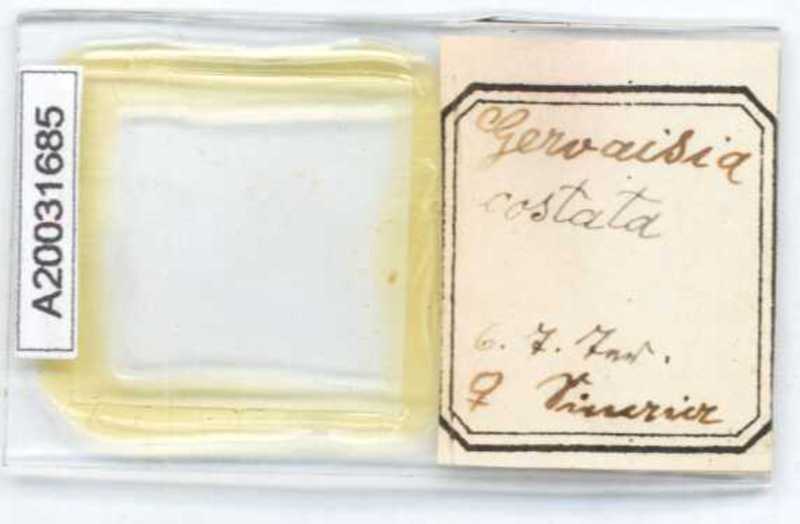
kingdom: Animalia
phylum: Arthropoda
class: Diplopoda
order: Glomerida
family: Glomeridae
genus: Trachysphaera
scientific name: Trachysphaera costata
